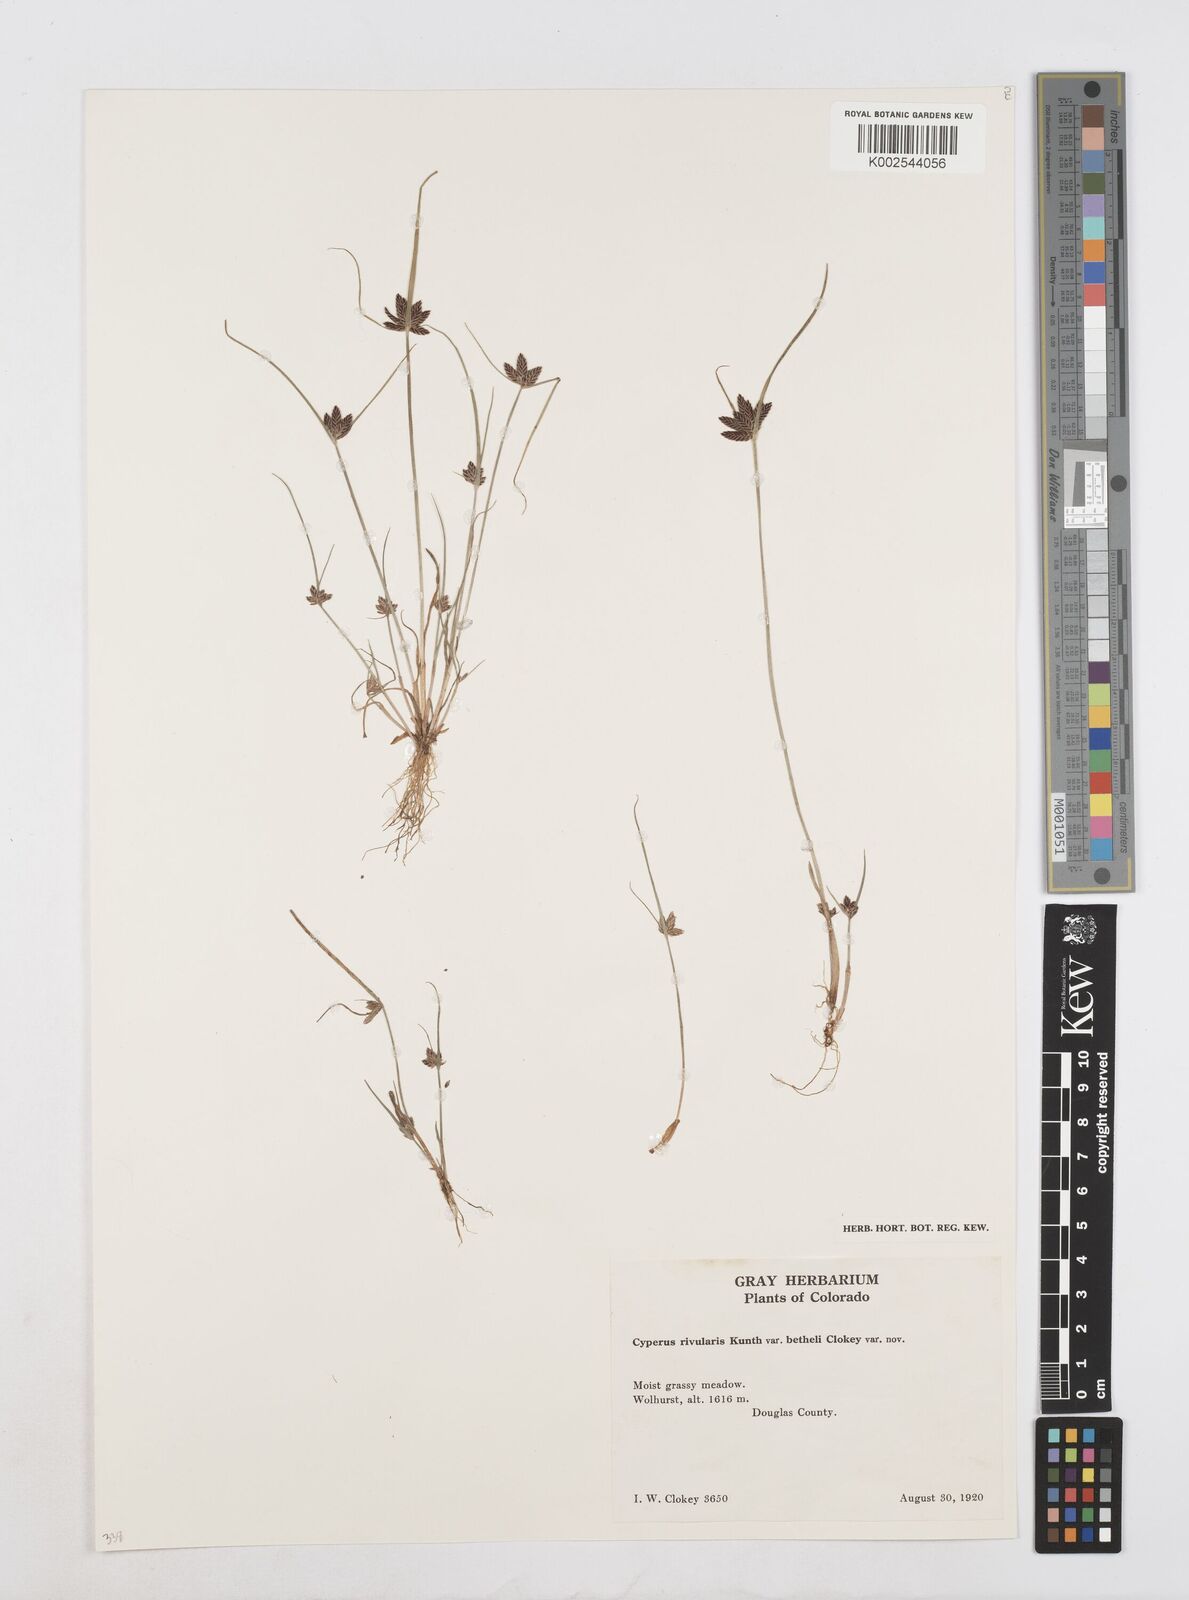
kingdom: Plantae
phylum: Tracheophyta
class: Liliopsida
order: Poales
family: Cyperaceae
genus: Cyperus
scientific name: Cyperus bipartitus
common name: Brook flatsedge
